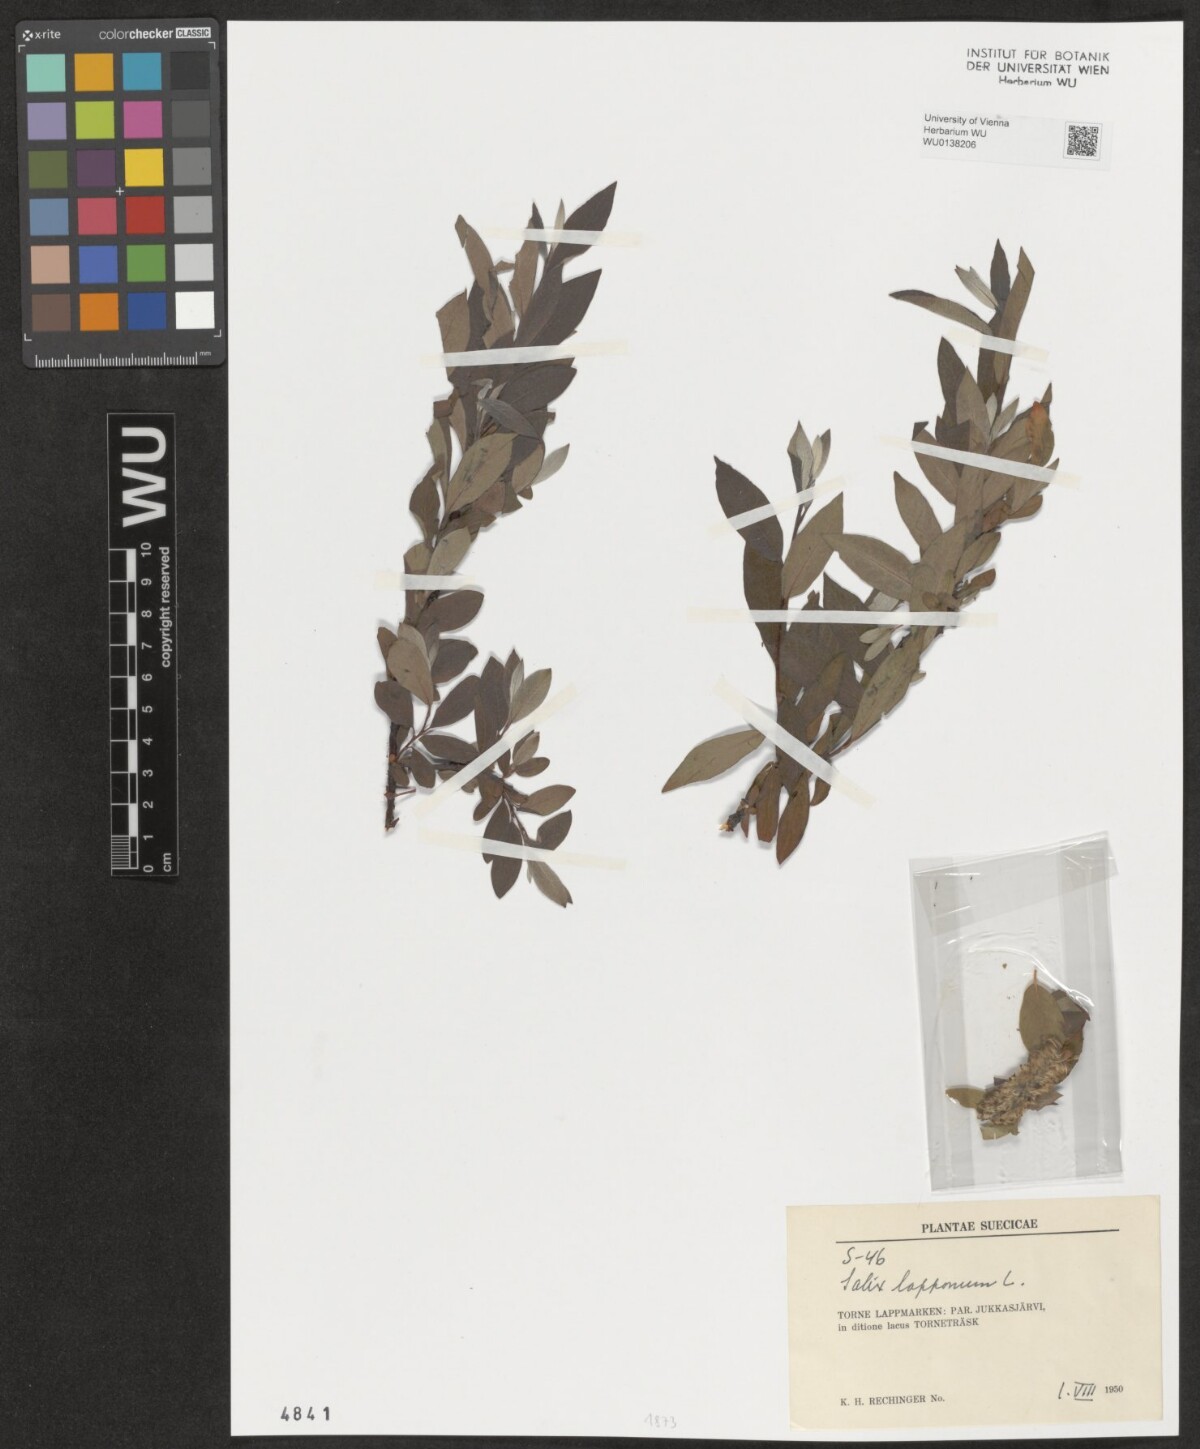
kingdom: Plantae
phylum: Tracheophyta
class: Magnoliopsida
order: Malpighiales
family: Salicaceae
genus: Salix
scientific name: Salix lapponum
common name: Downy willow
